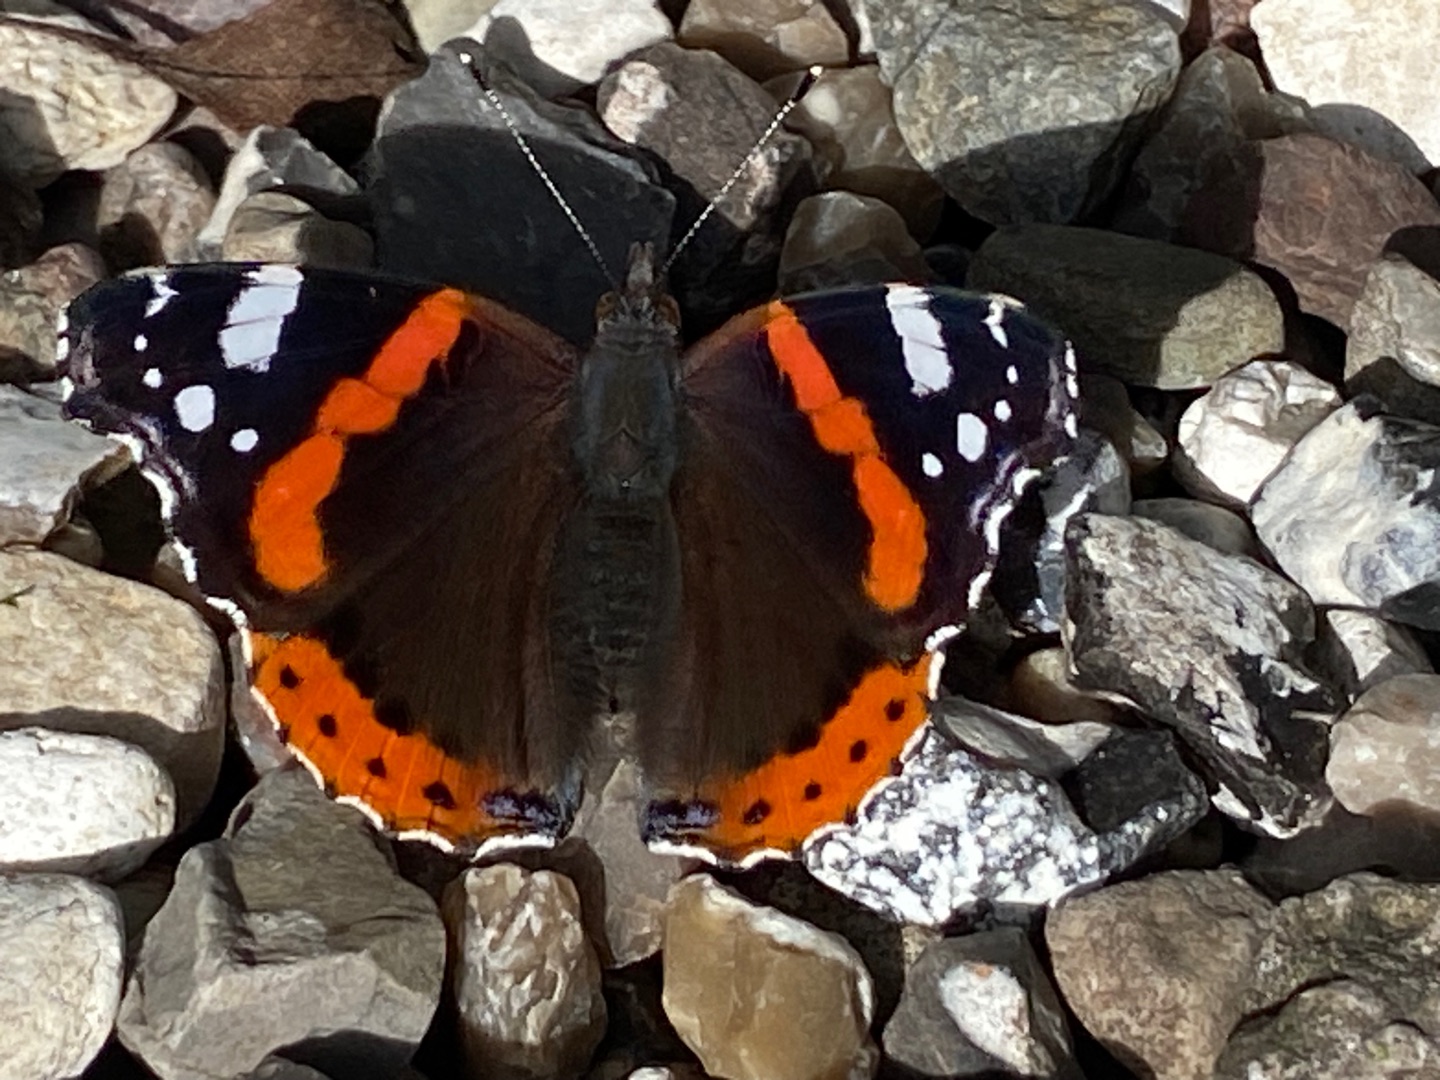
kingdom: Animalia
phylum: Arthropoda
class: Insecta
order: Lepidoptera
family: Nymphalidae
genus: Vanessa
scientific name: Vanessa atalanta
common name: Admiral
